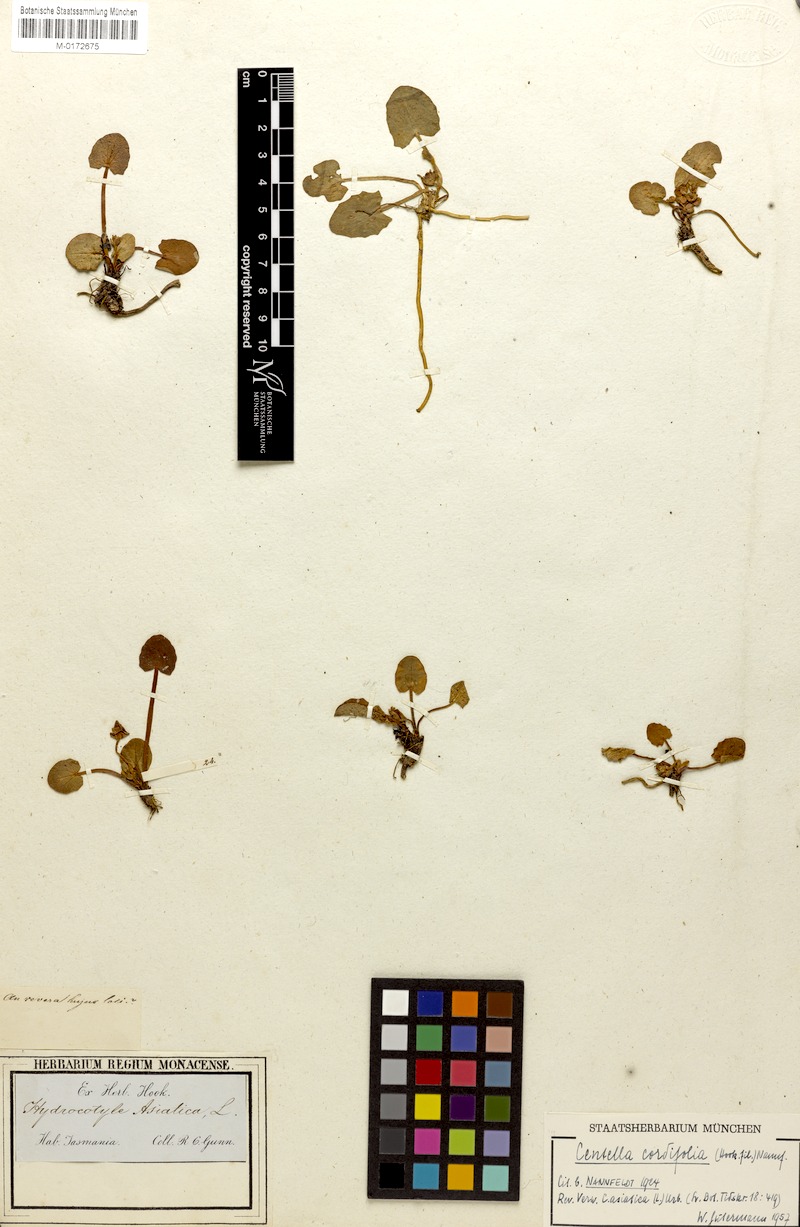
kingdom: Plantae
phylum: Tracheophyta
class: Magnoliopsida
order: Apiales
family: Apiaceae
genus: Centella
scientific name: Centella cordifolia
